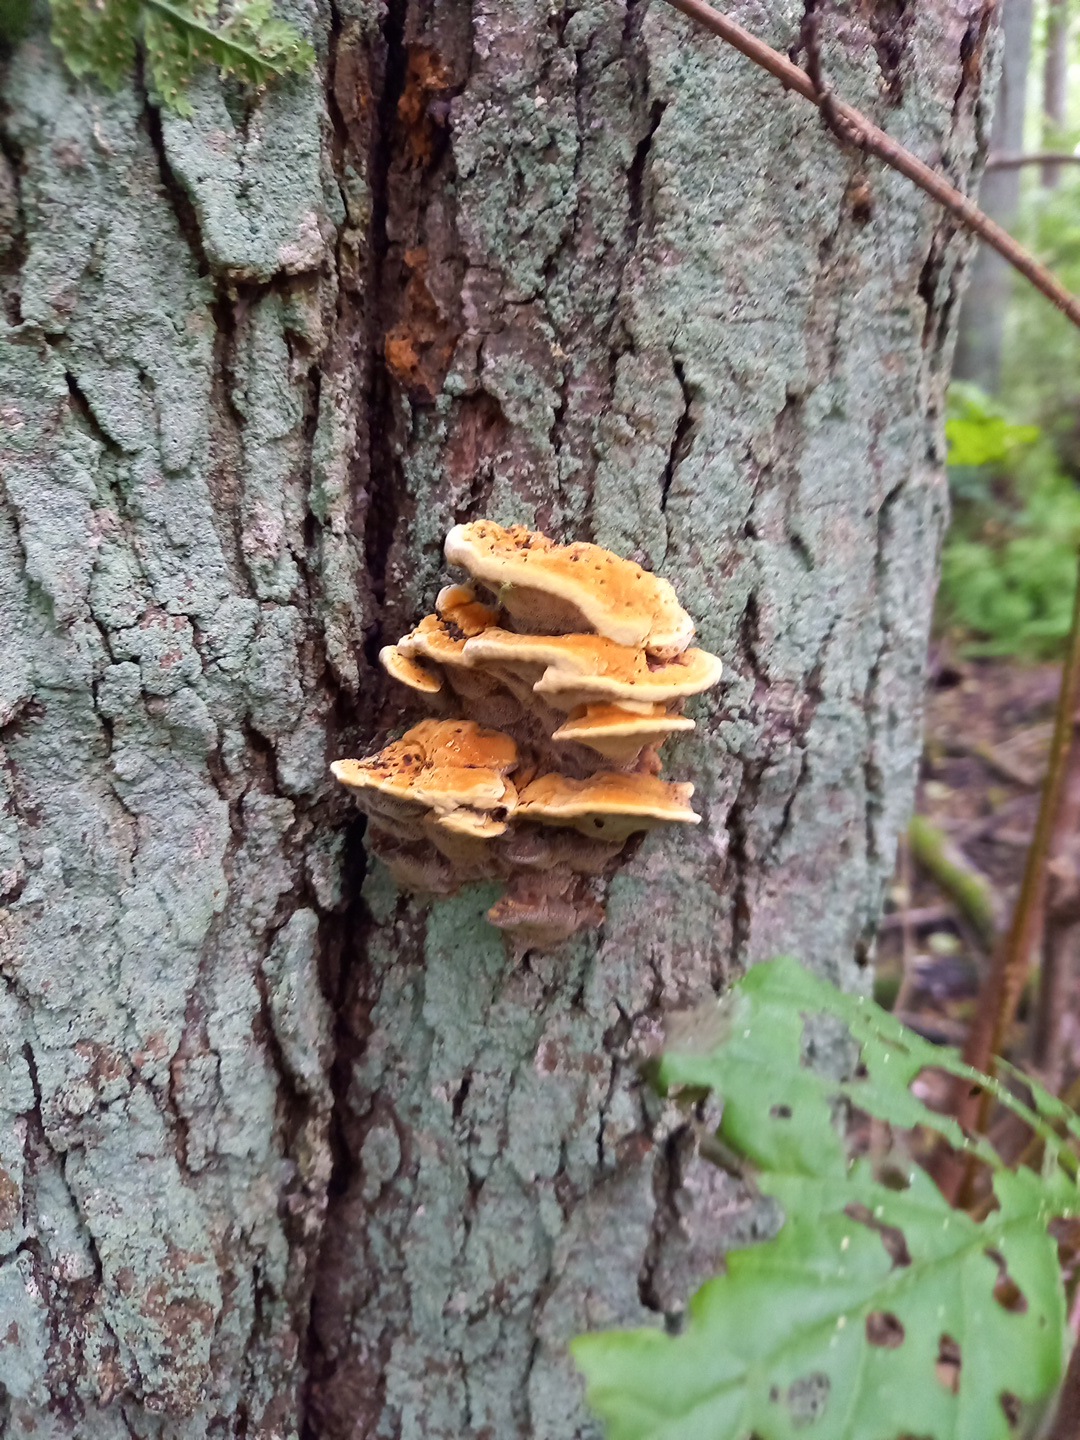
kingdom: Fungi
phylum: Basidiomycota
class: Agaricomycetes
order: Hymenochaetales
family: Hymenochaetaceae
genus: Xanthoporia
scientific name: Xanthoporia radiata
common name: elle-spejlporesvamp
